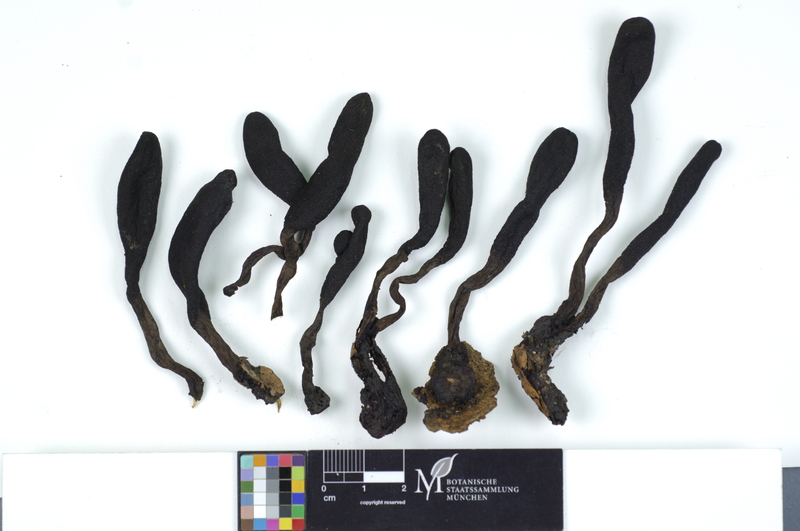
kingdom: Fungi
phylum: Ascomycota
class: Sordariomycetes
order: Xylariales
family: Xylariaceae
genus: Xylaria
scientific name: Xylaria longipes
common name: Dead moll's fingers
